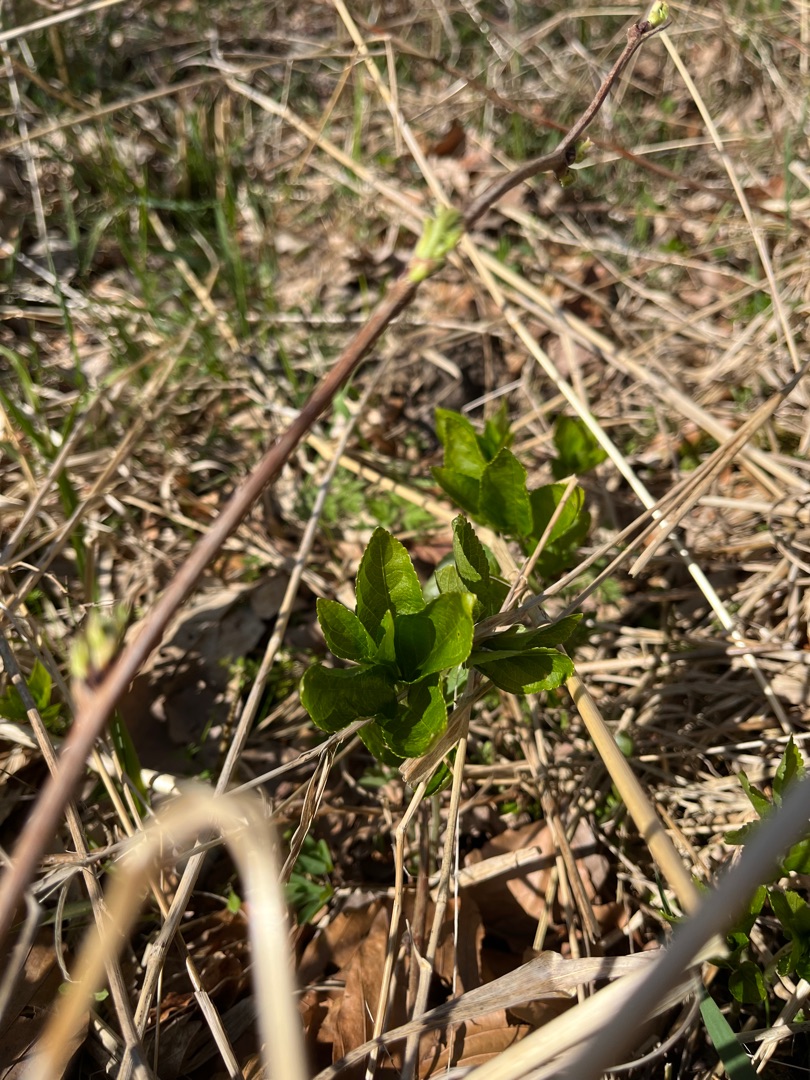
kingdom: Plantae
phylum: Tracheophyta
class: Magnoliopsida
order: Malpighiales
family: Euphorbiaceae
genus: Mercurialis
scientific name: Mercurialis perennis
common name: Almindelig bingelurt
